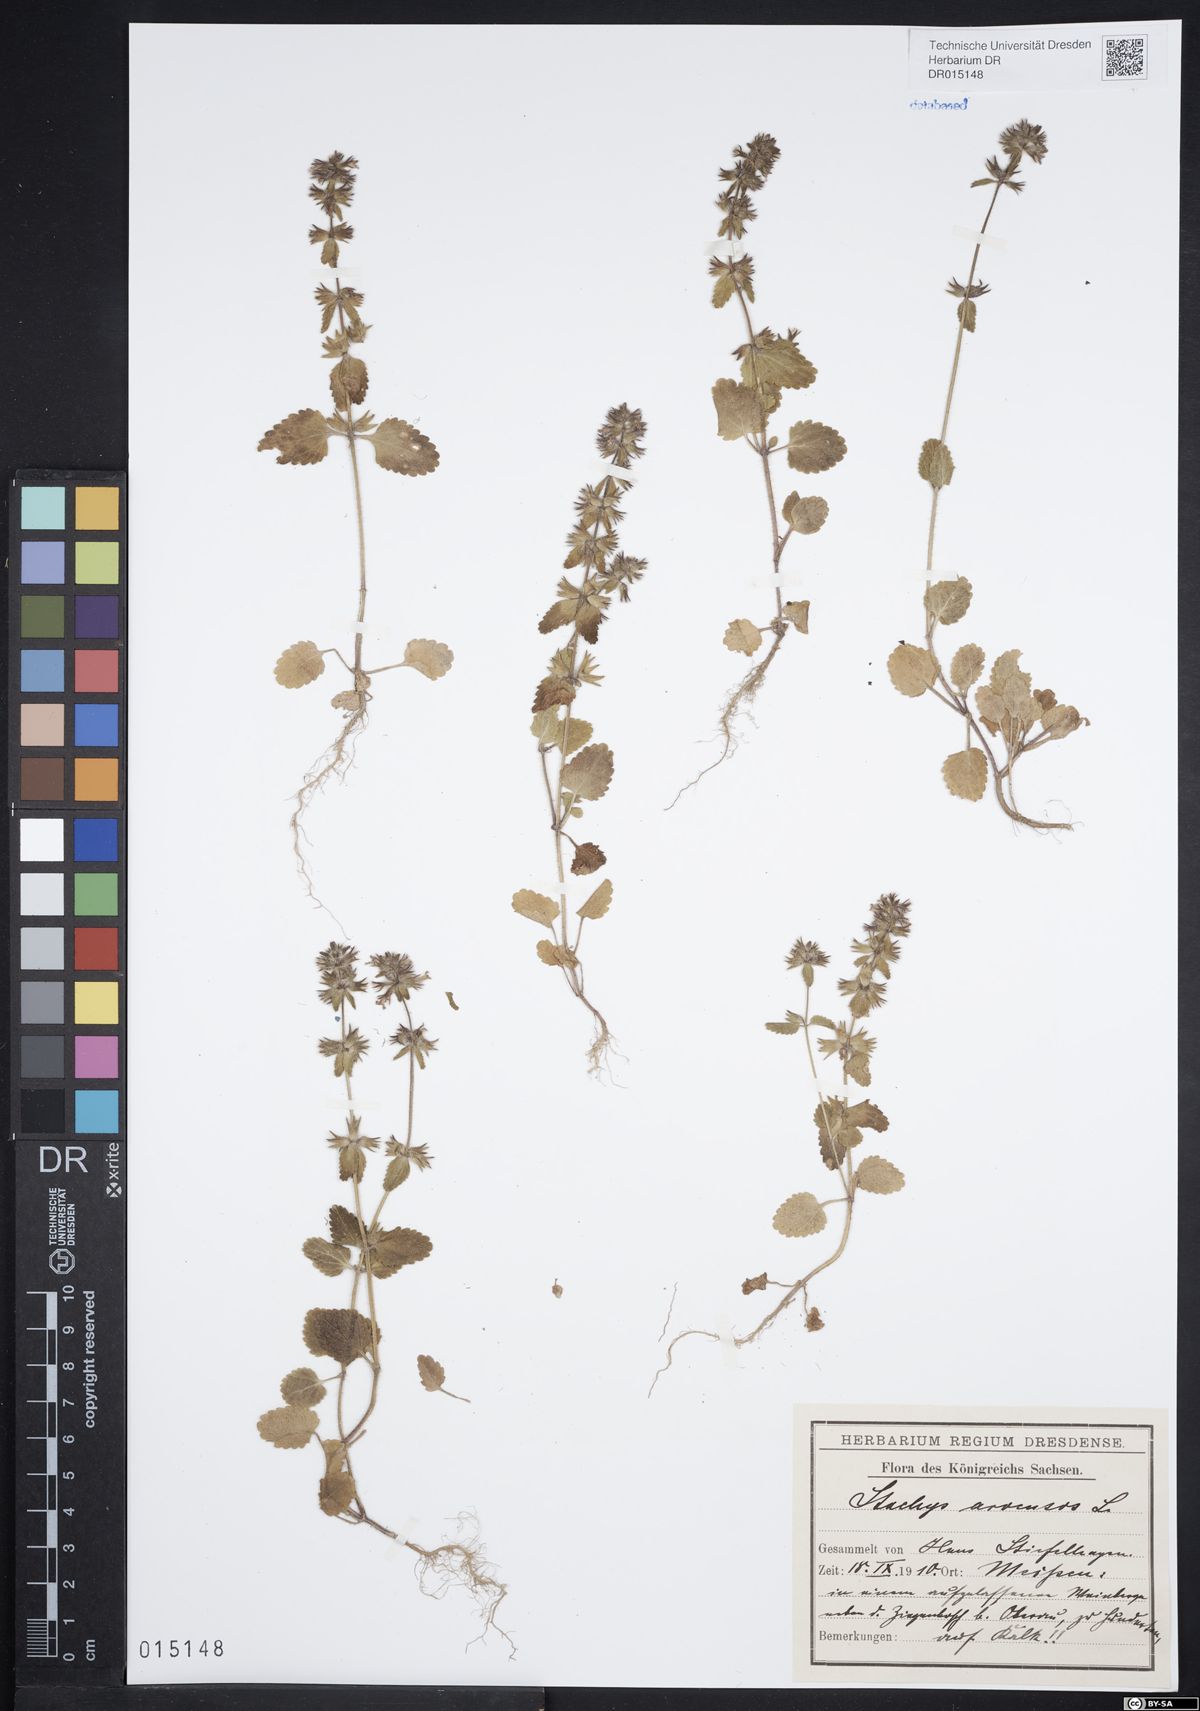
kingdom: Plantae
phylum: Tracheophyta
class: Magnoliopsida
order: Lamiales
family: Lamiaceae
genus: Stachys
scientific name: Stachys arvensis
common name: Field woundwort
